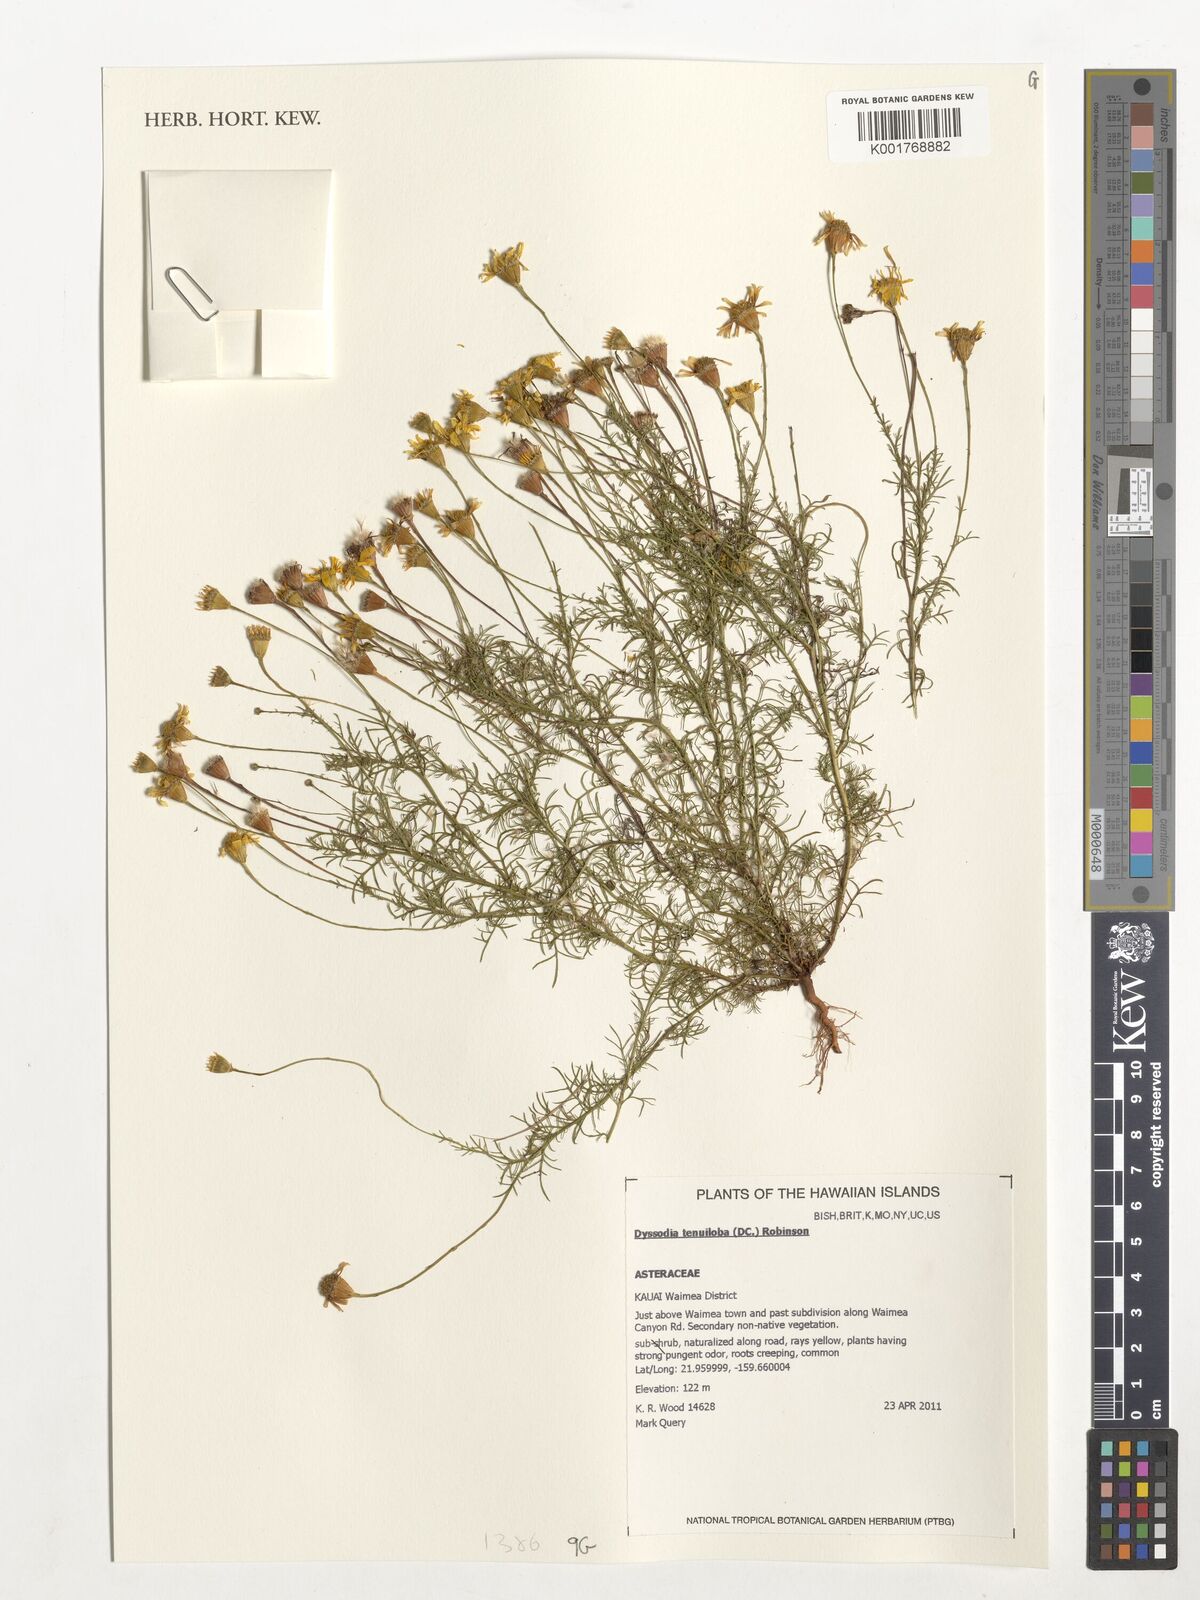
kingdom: Plantae
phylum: Tracheophyta
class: Magnoliopsida
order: Asterales
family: Asteraceae
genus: Thymophylla
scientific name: Thymophylla tenuiloba
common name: Dahlberg's daisy
